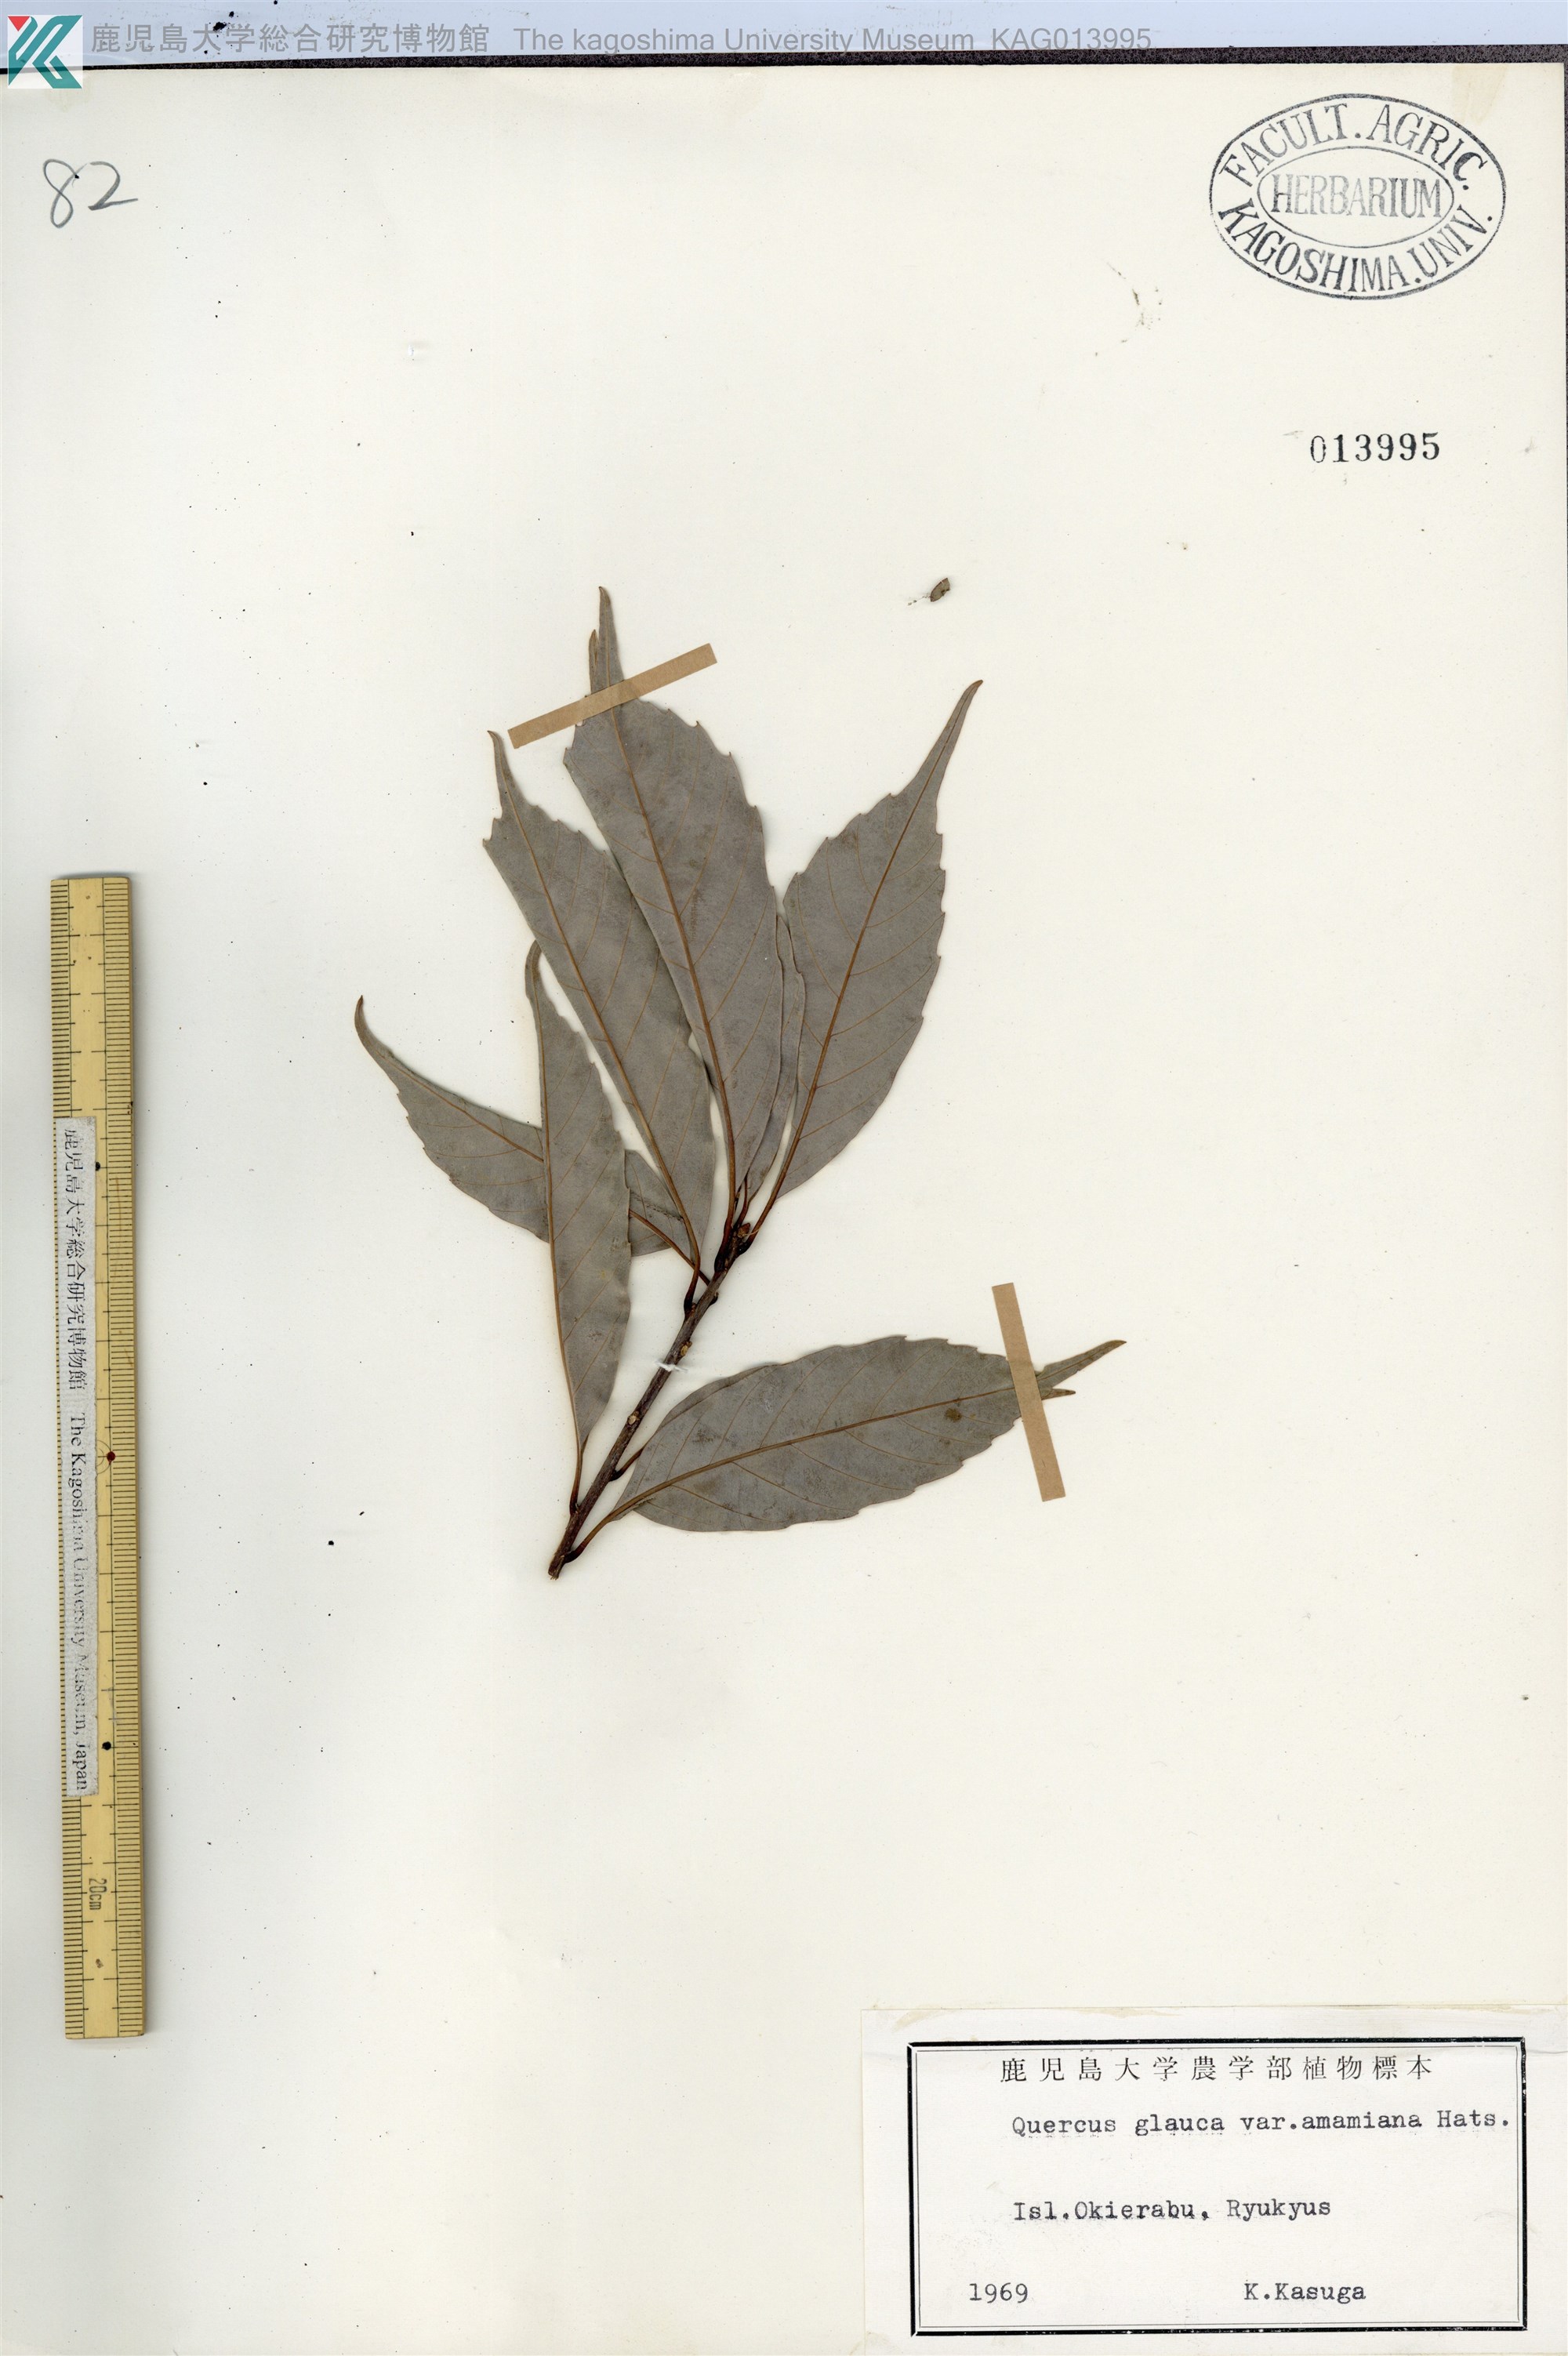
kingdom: Plantae
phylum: Tracheophyta
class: Magnoliopsida
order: Fagales
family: Fagaceae
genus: Quercus
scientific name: Quercus miyagii
